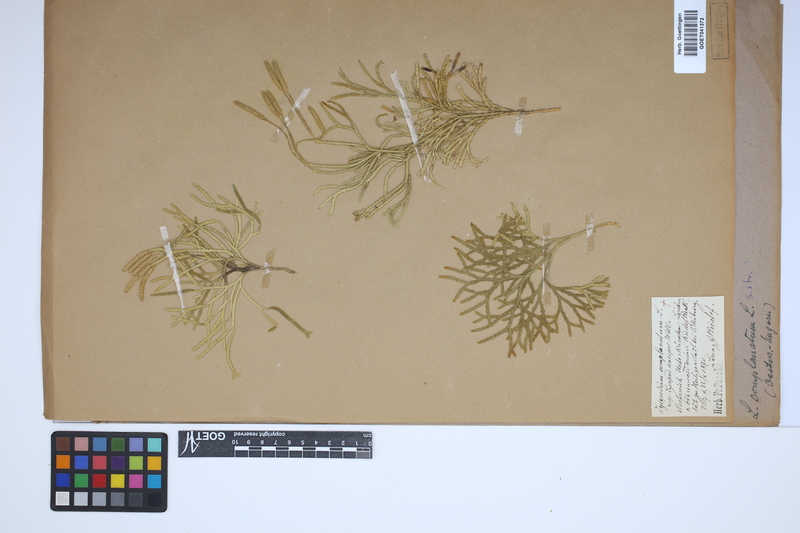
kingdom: Plantae
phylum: Tracheophyta
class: Lycopodiopsida
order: Lycopodiales
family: Lycopodiaceae
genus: Diphasiastrum
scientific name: Diphasiastrum complanatum
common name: Northern running-pine
